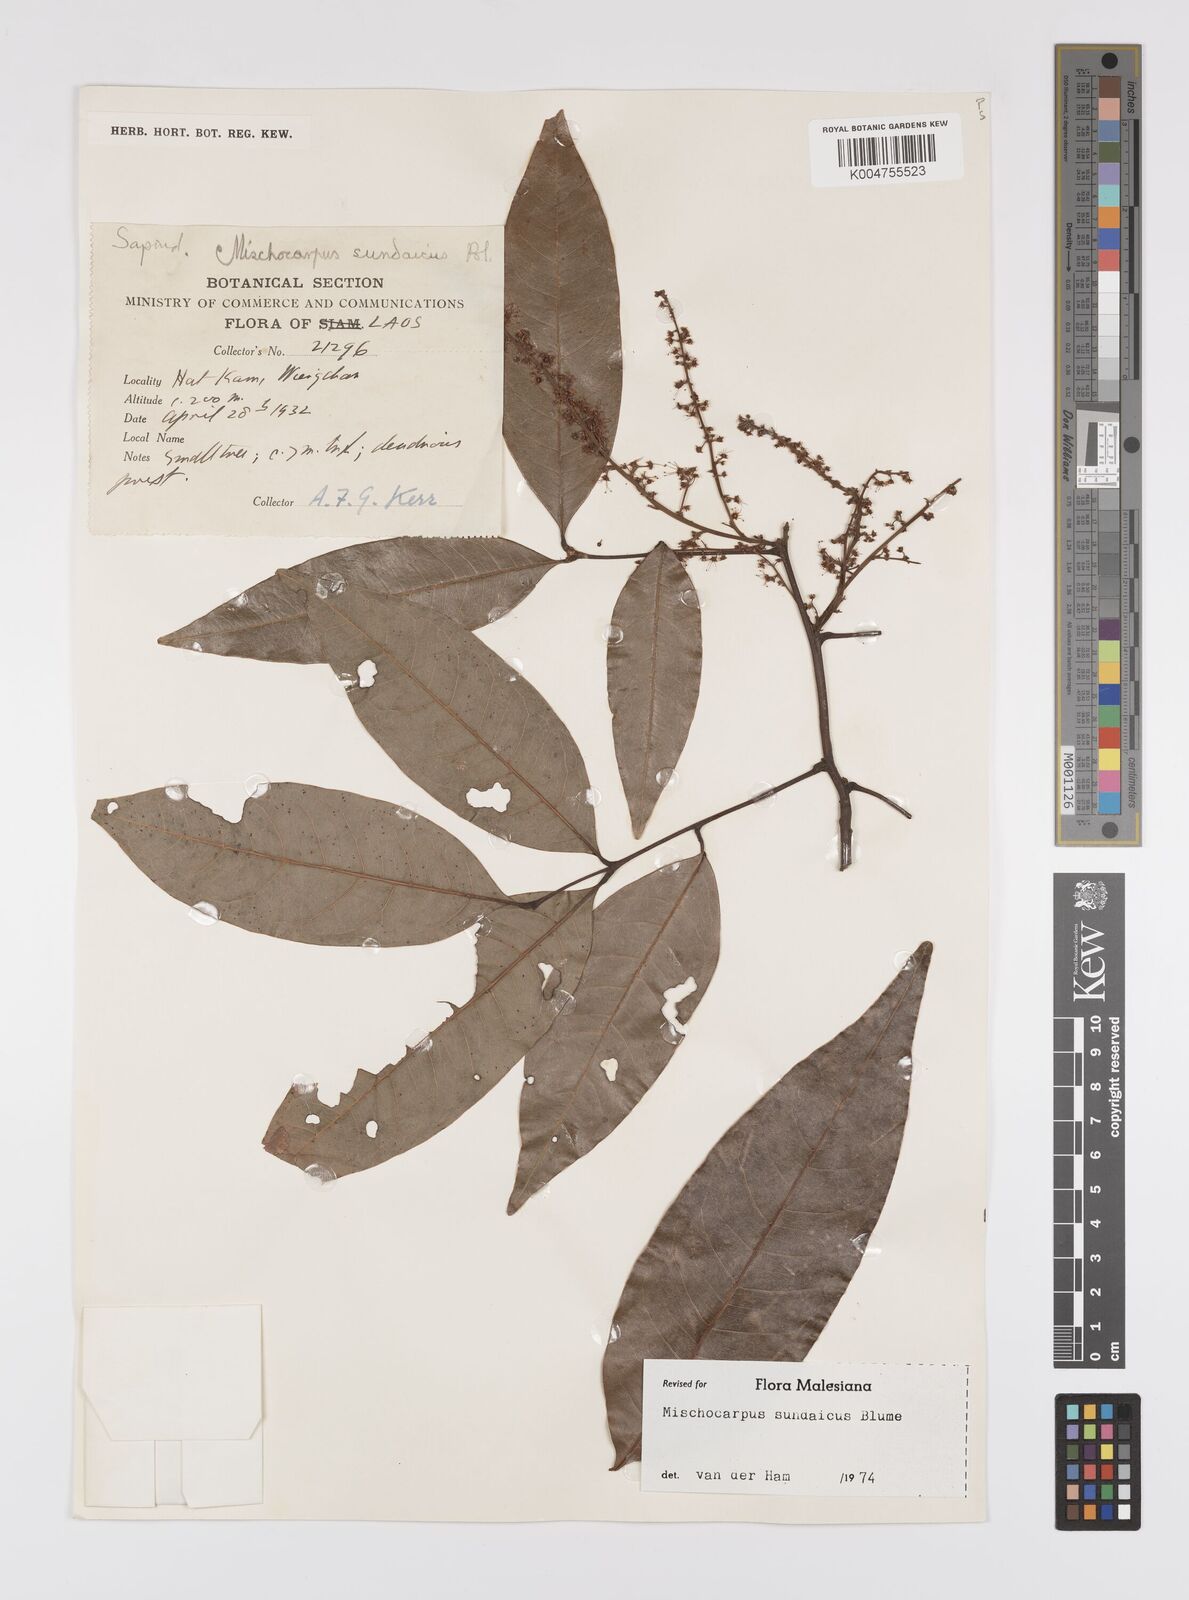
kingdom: Plantae
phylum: Tracheophyta
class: Magnoliopsida
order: Sapindales
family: Sapindaceae
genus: Mischocarpus
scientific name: Mischocarpus sundaicus
